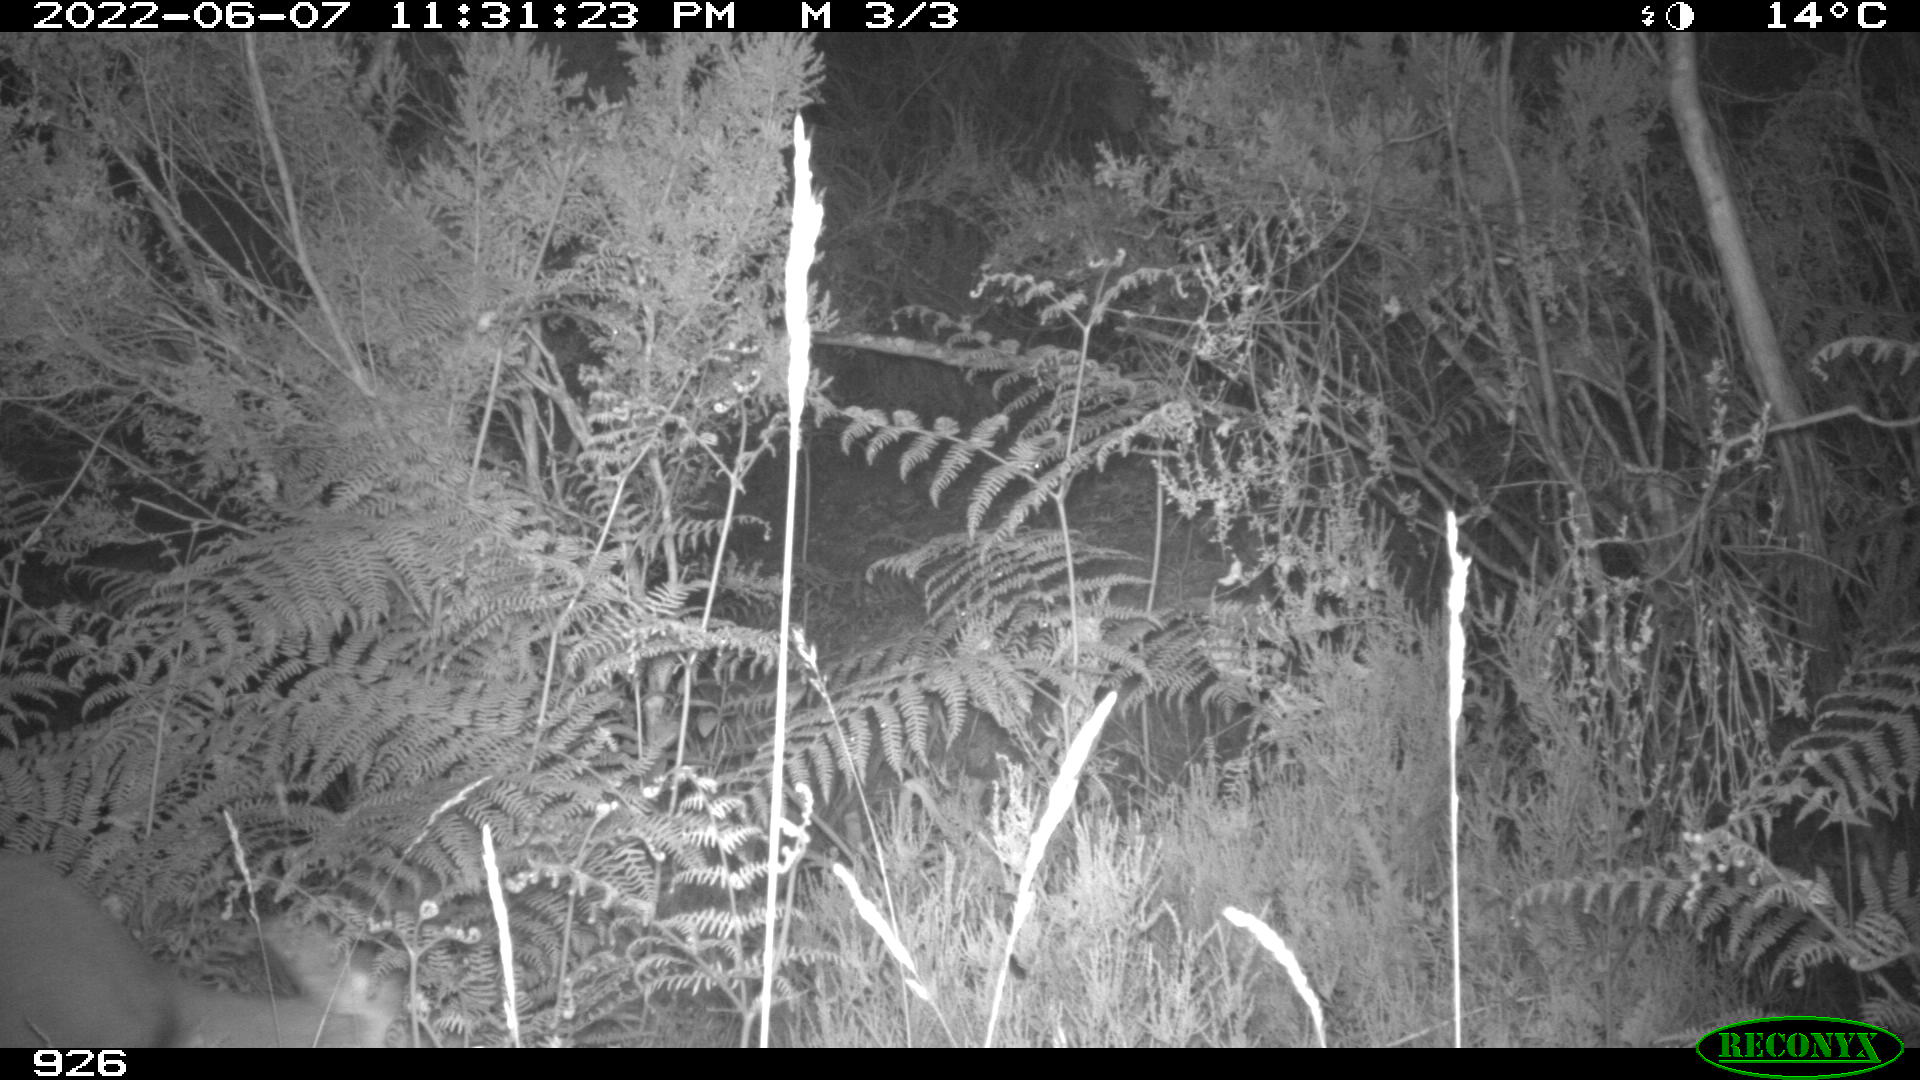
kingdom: Animalia
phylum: Chordata
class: Mammalia
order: Artiodactyla
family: Cervidae
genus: Capreolus
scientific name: Capreolus capreolus
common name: Western roe deer
